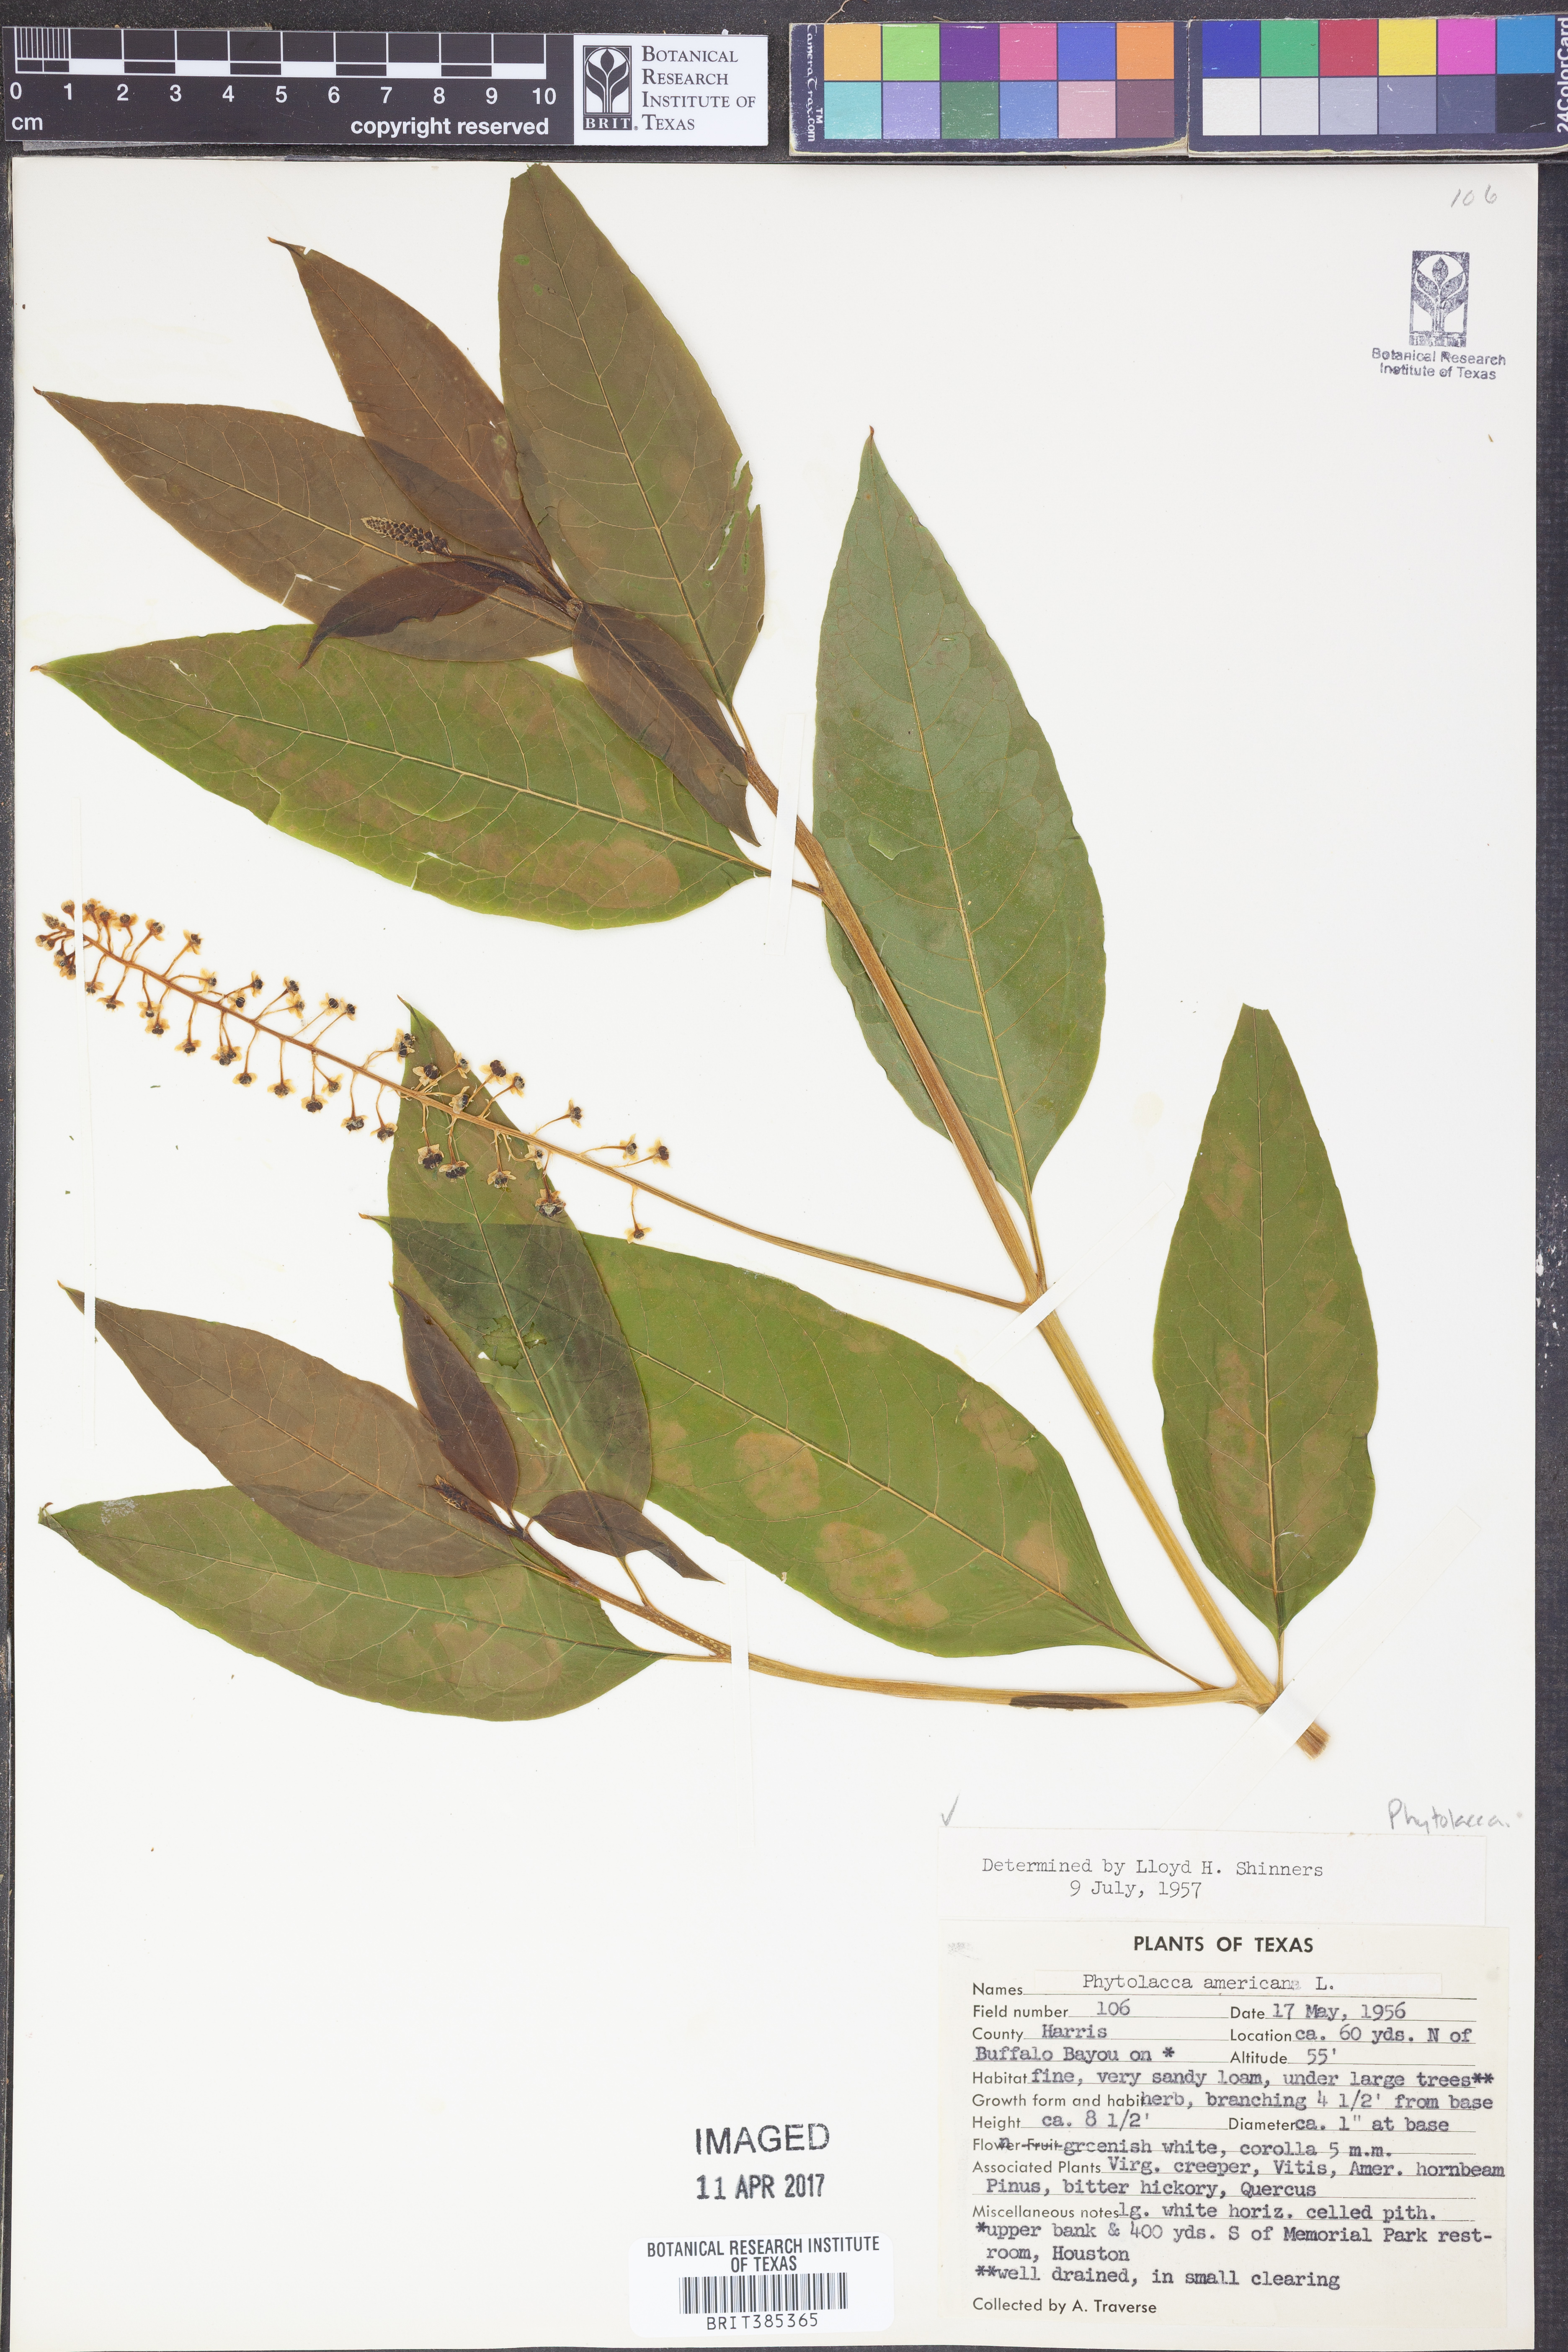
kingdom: Plantae
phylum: Tracheophyta
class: Magnoliopsida
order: Caryophyllales
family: Phytolaccaceae
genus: Phytolacca
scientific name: Phytolacca americana
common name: American pokeweed
